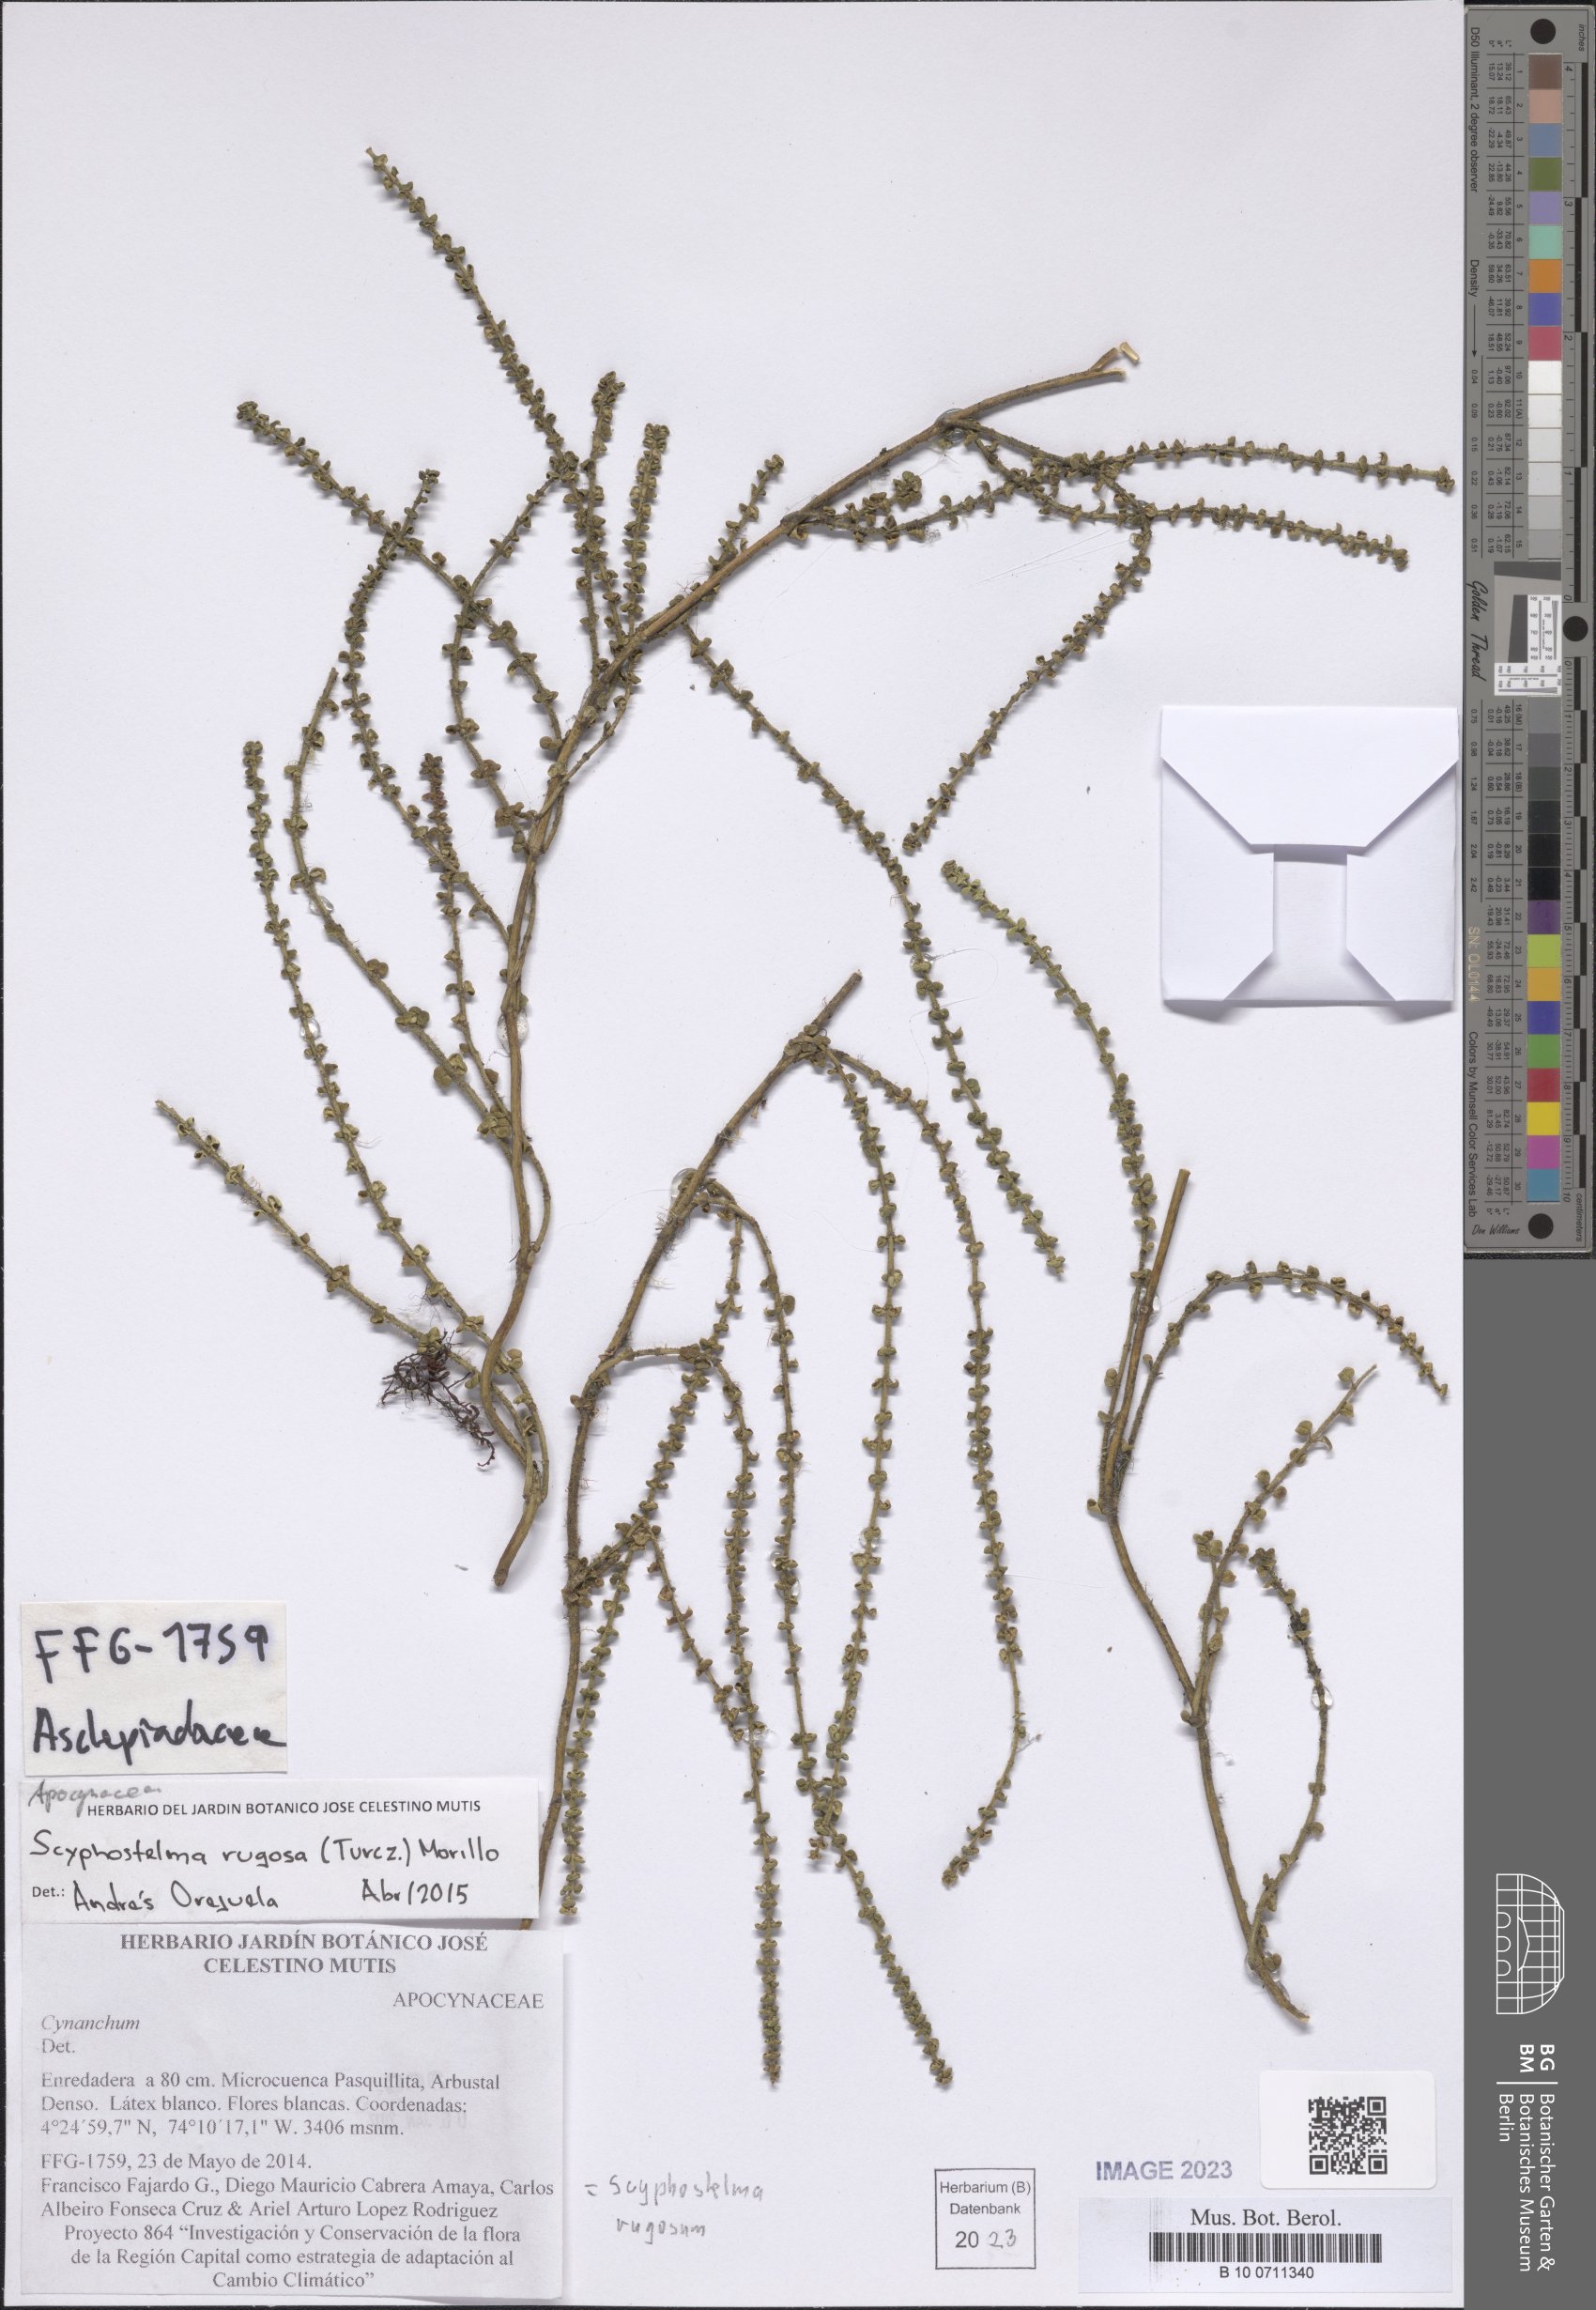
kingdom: Plantae
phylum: Tracheophyta
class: Magnoliopsida
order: Gentianales
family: Apocynaceae
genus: Scyphostelma
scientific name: Scyphostelma rugosa
